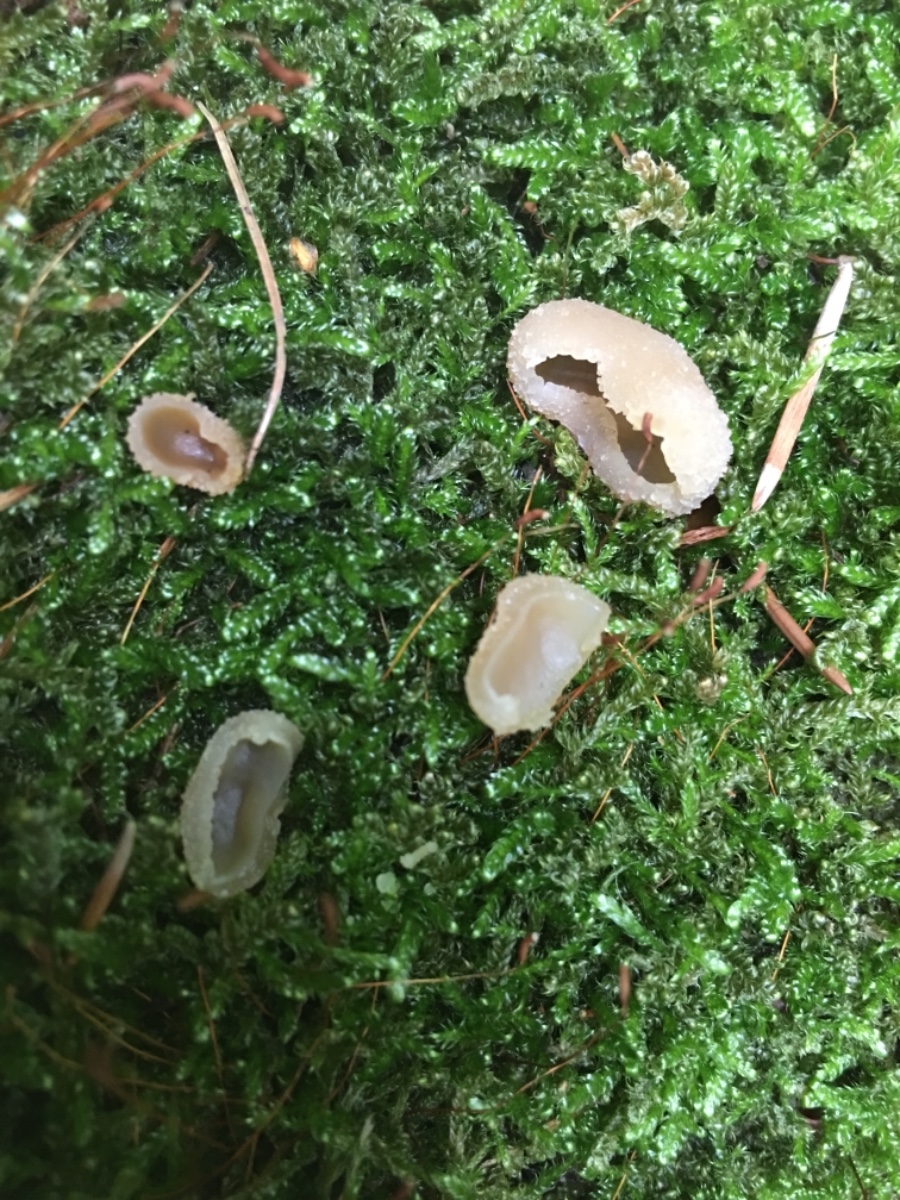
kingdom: Fungi
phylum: Ascomycota
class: Pezizomycetes
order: Pezizales
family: Pezizaceae
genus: Peziza
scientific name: Peziza
